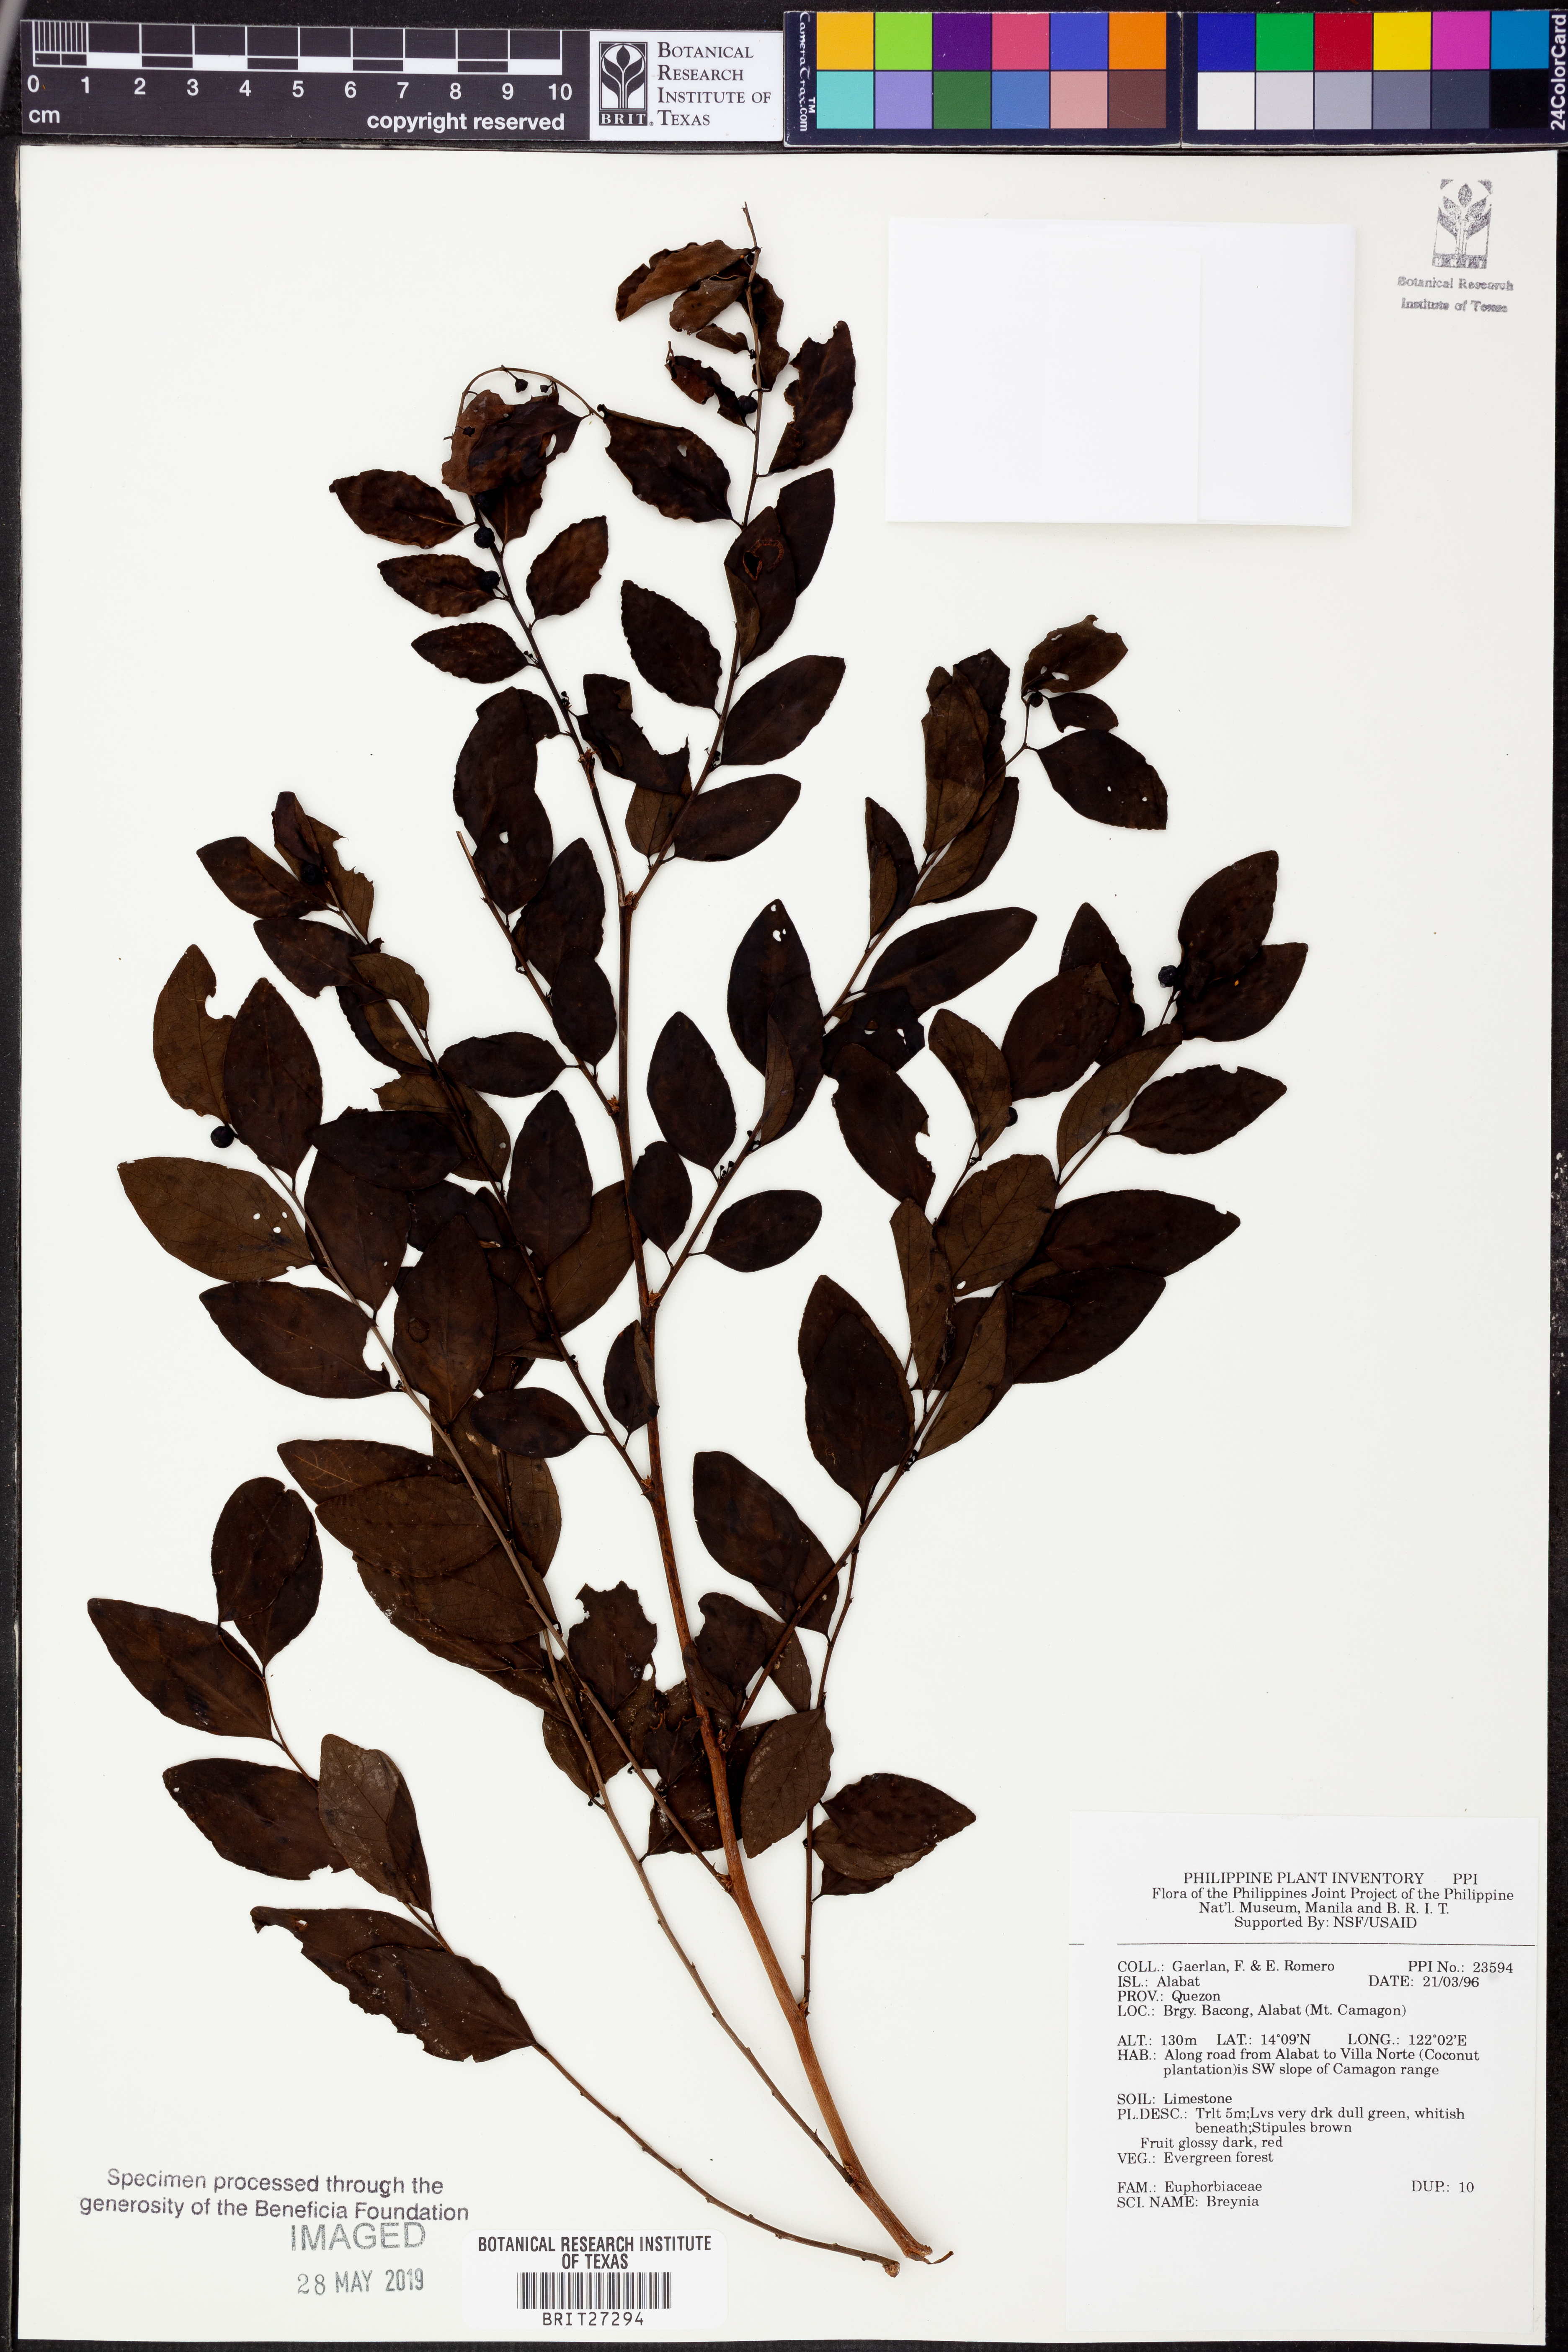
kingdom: Plantae
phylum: Tracheophyta
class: Magnoliopsida
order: Malpighiales
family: Phyllanthaceae
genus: Breynia
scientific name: Breynia
